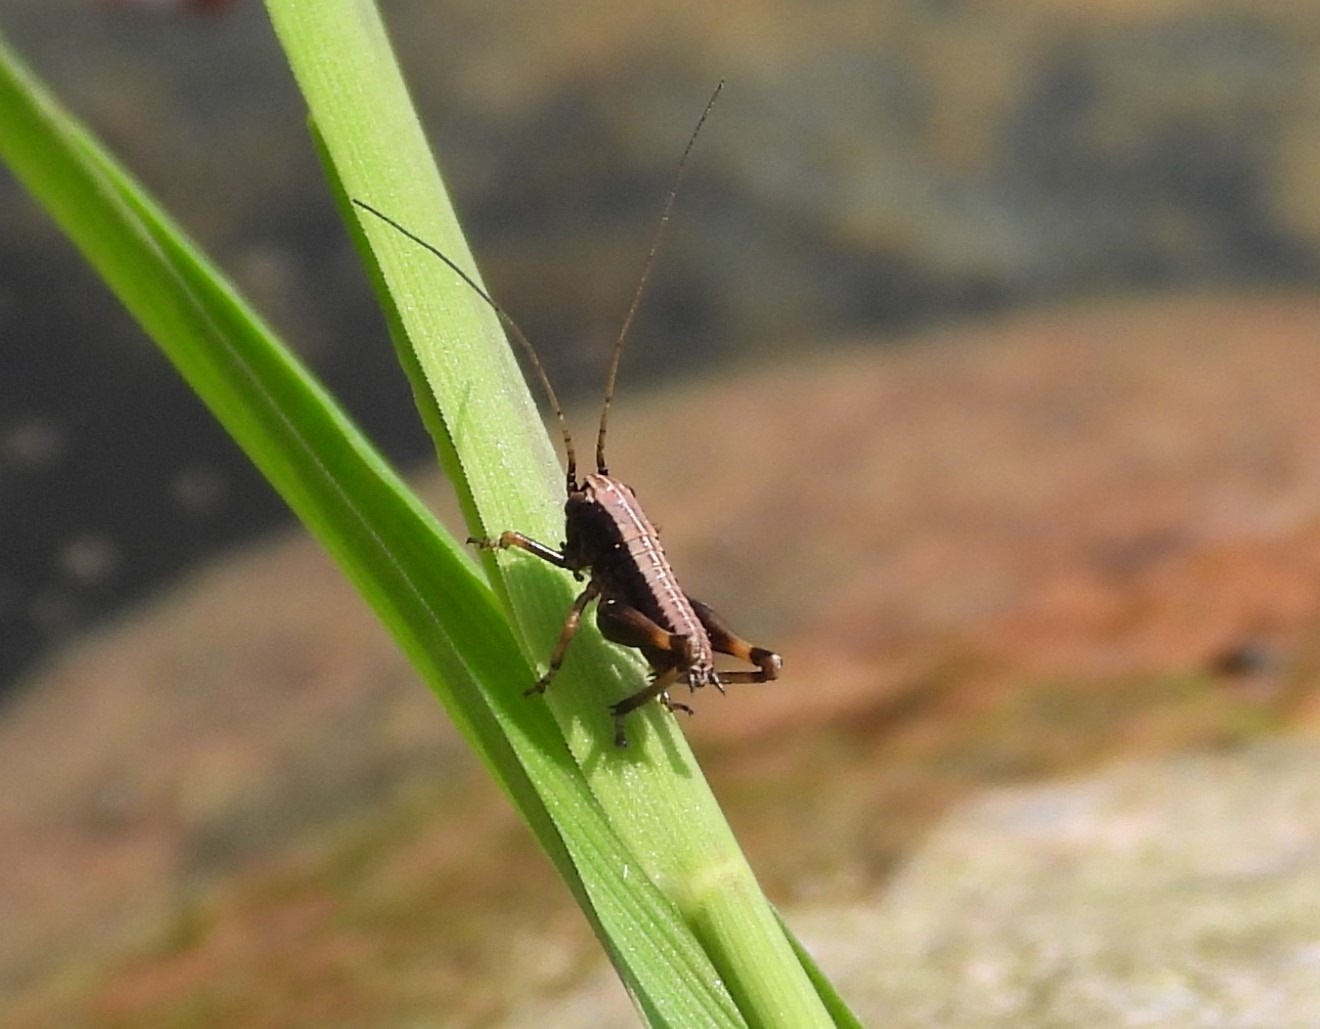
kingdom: Animalia
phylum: Arthropoda
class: Insecta
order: Orthoptera
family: Tettigoniidae
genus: Pholidoptera
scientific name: Pholidoptera griseoaptera
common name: Buskgræshoppe
